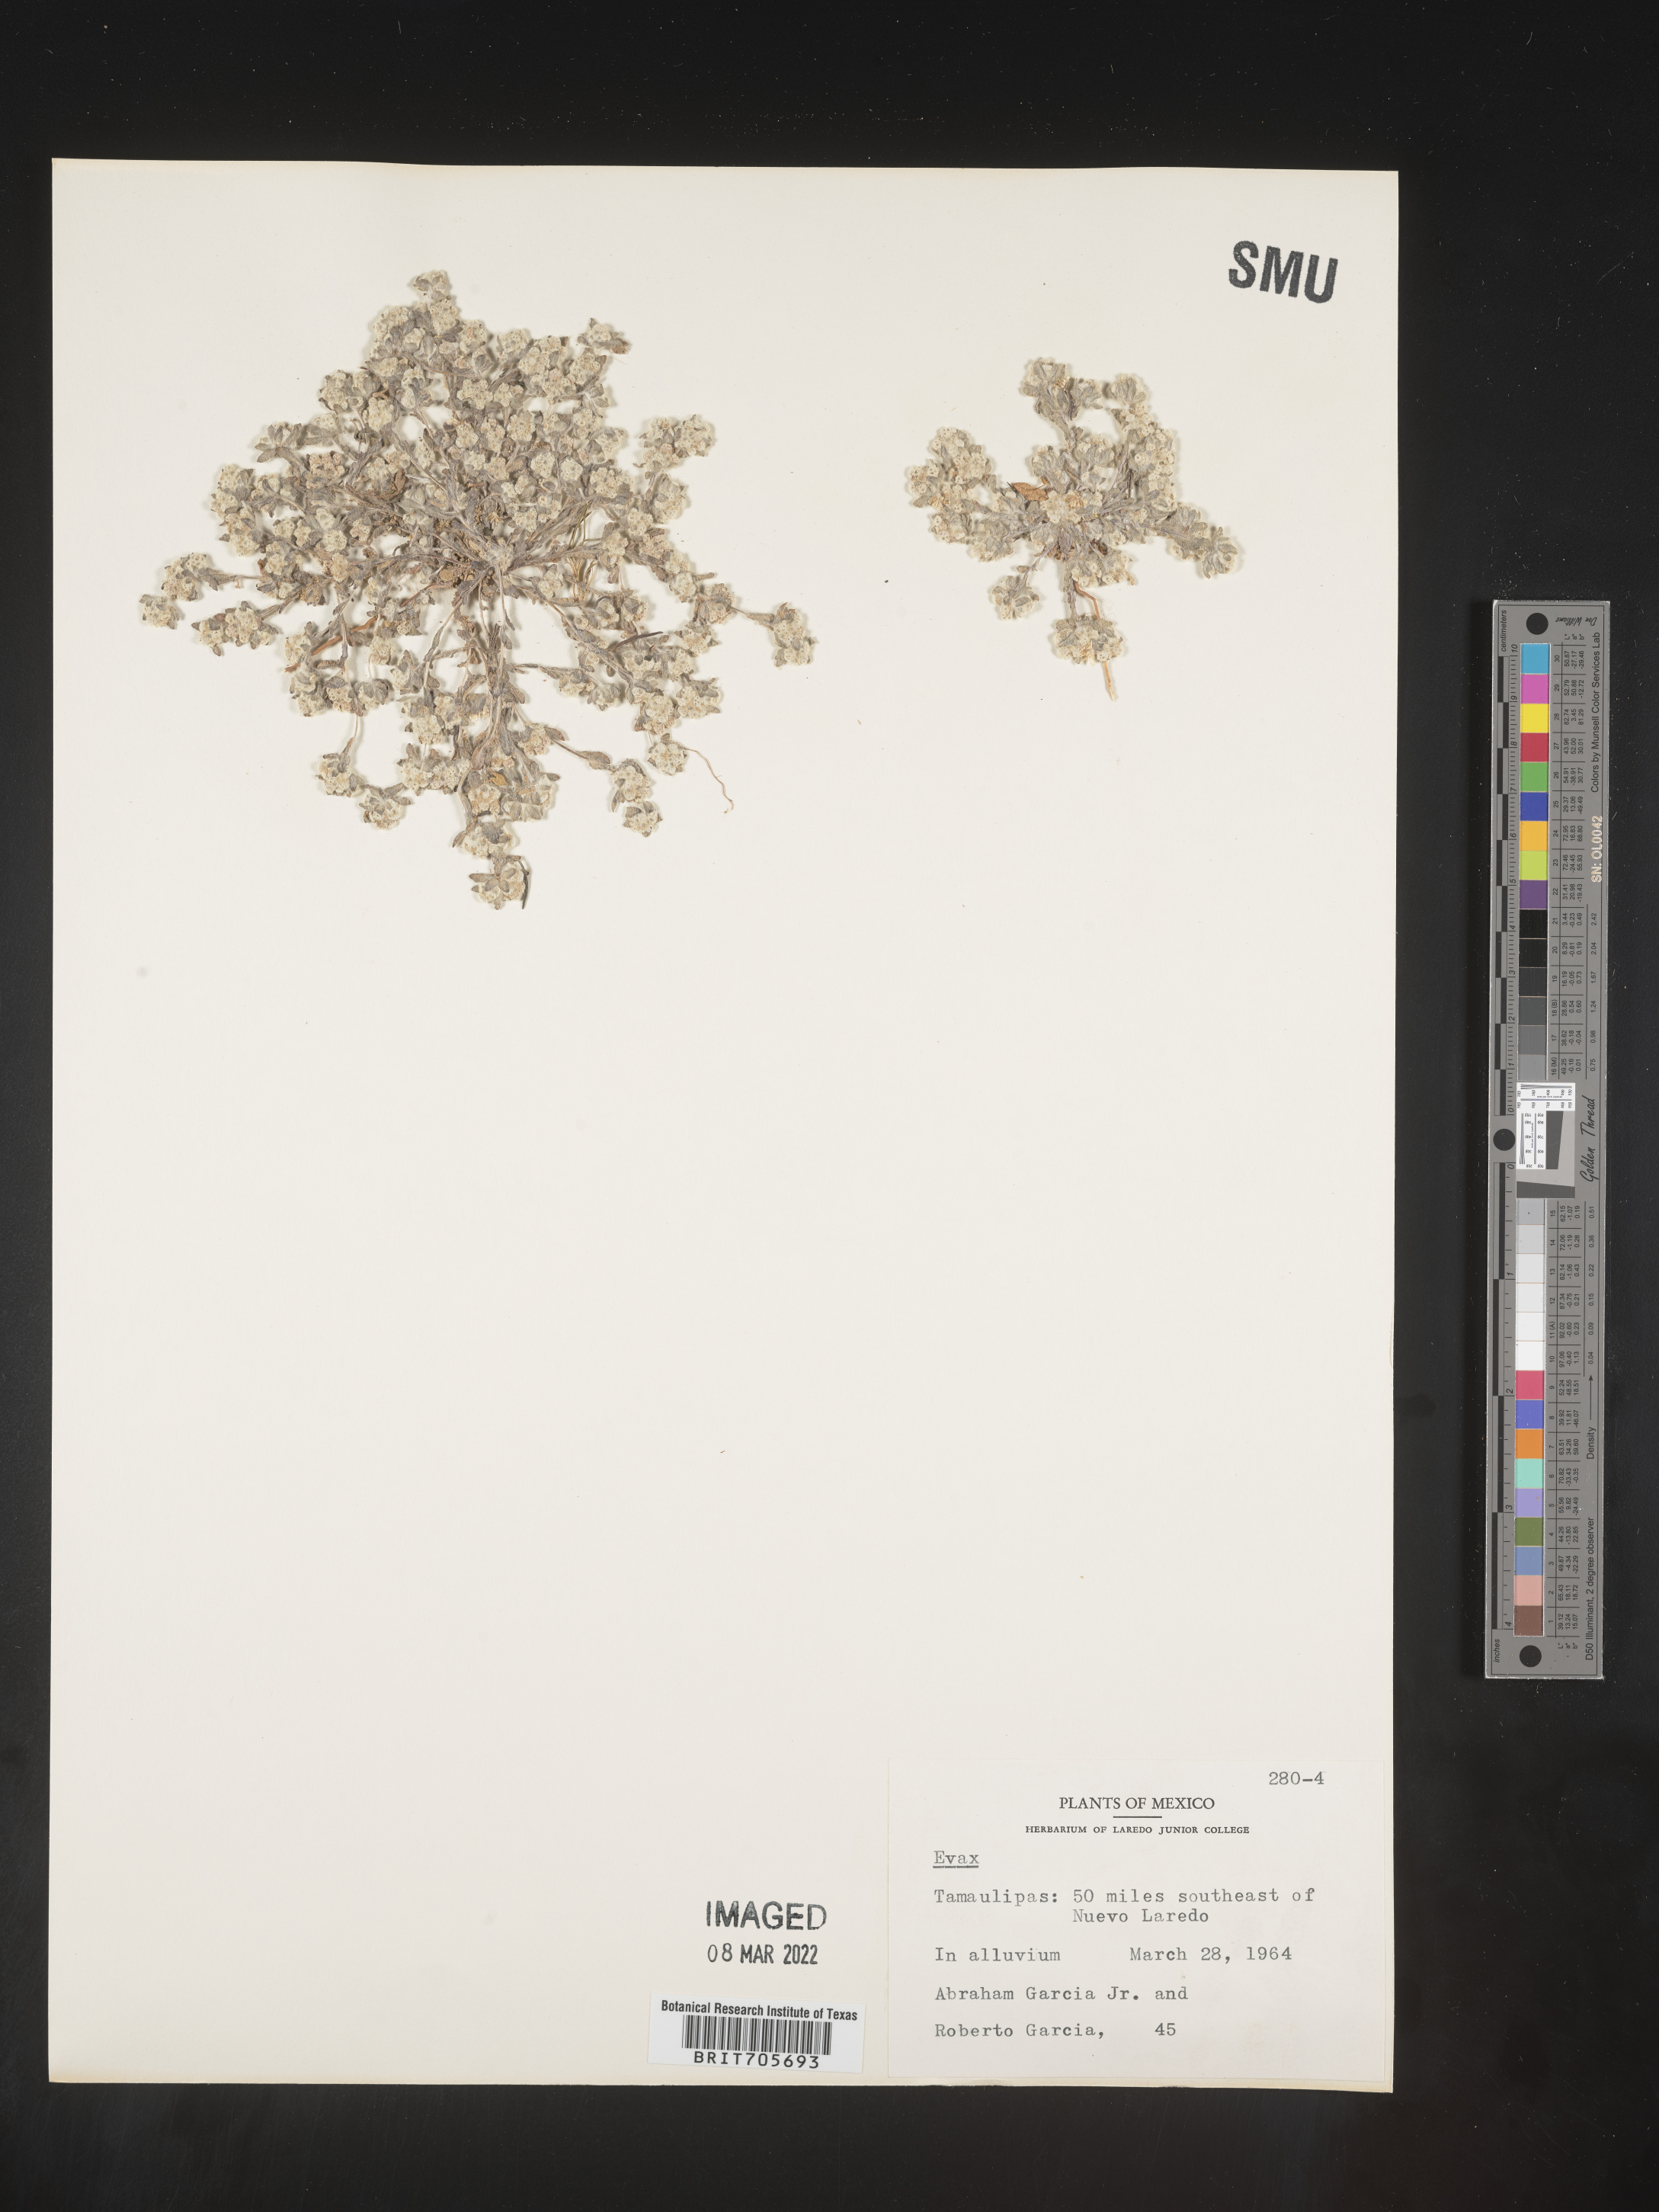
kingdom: Plantae
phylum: Tracheophyta
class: Magnoliopsida
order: Asterales
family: Asteraceae
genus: Filago
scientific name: Filago
